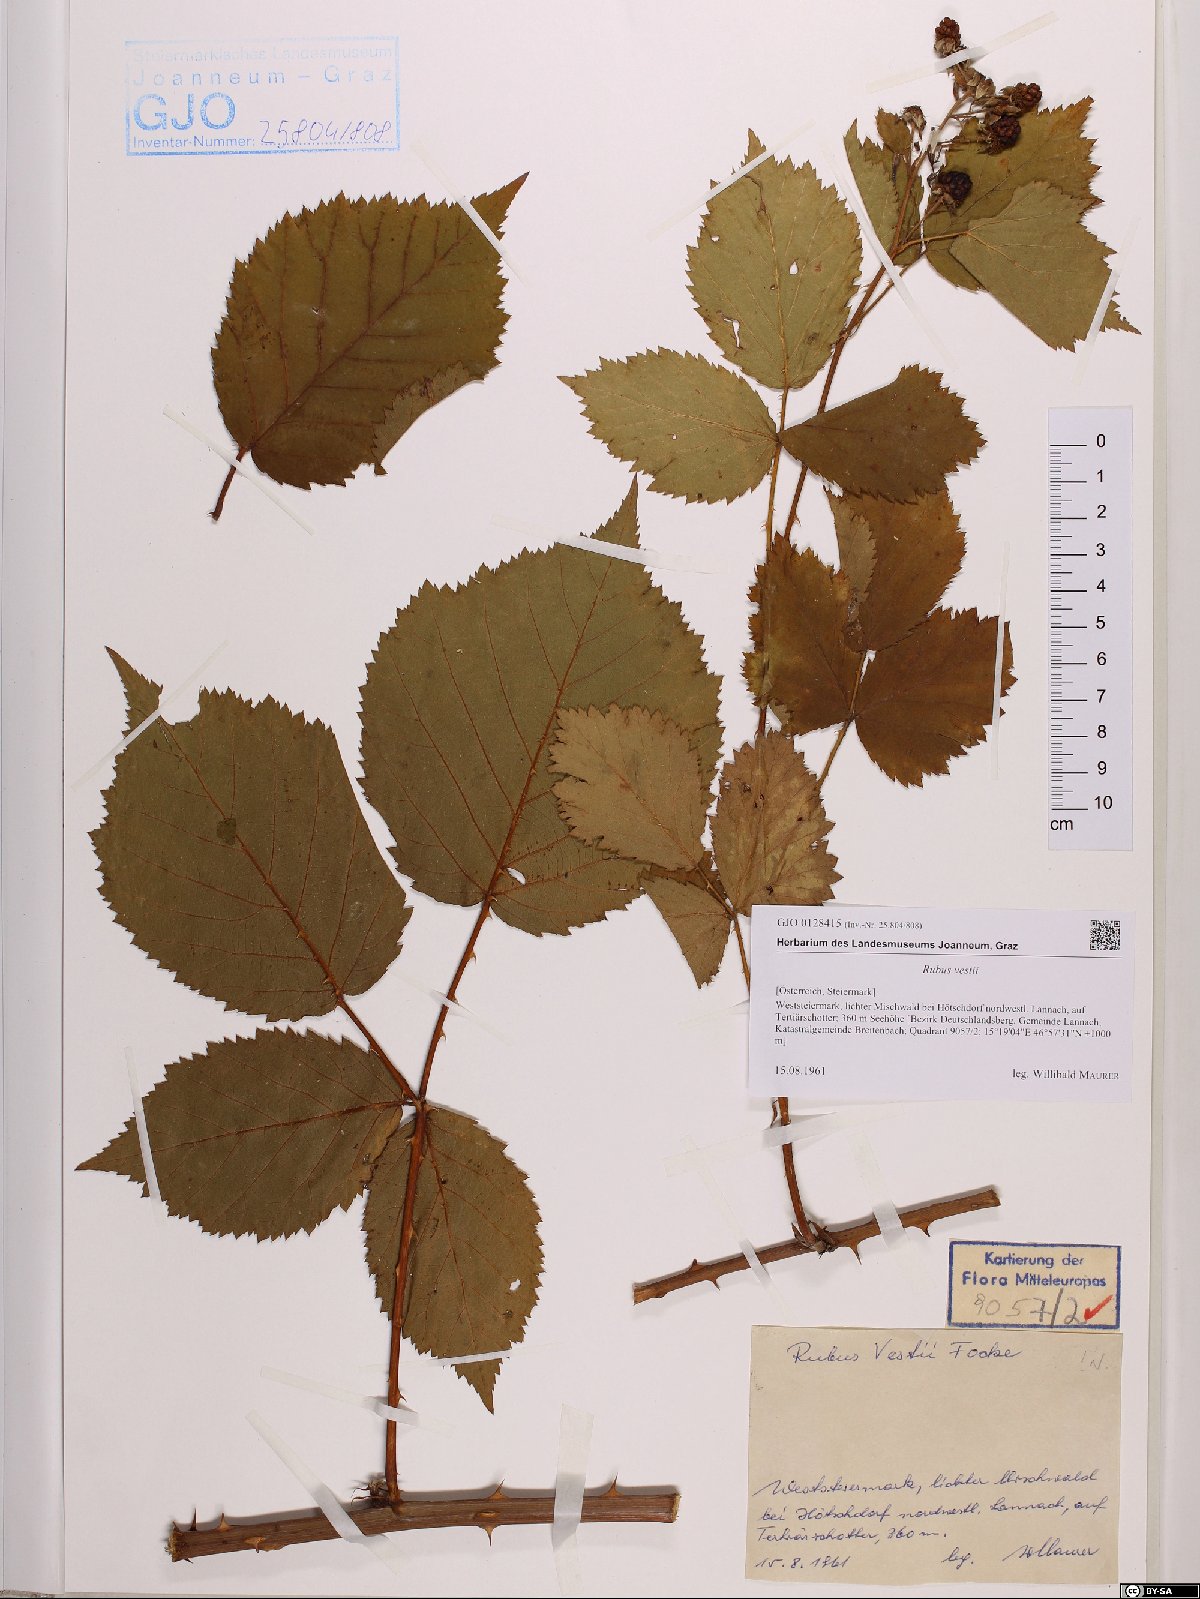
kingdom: Plantae
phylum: Tracheophyta
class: Magnoliopsida
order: Rosales
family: Rosaceae
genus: Rubus
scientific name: Rubus constrictus
